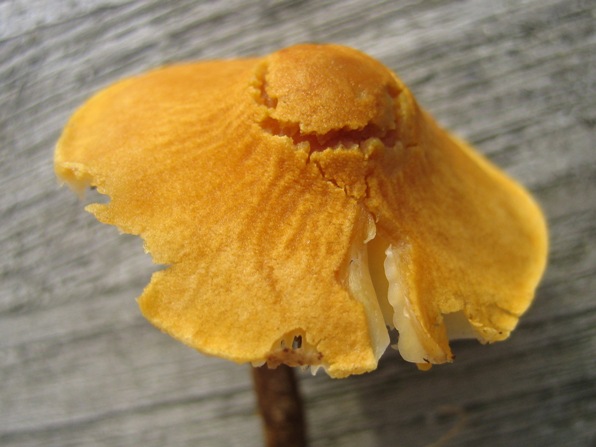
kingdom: Fungi
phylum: Basidiomycota
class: Agaricomycetes
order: Agaricales
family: Tricholomataceae
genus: Cystoderma
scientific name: Cystoderma amianthinum
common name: okkergul grynhat
